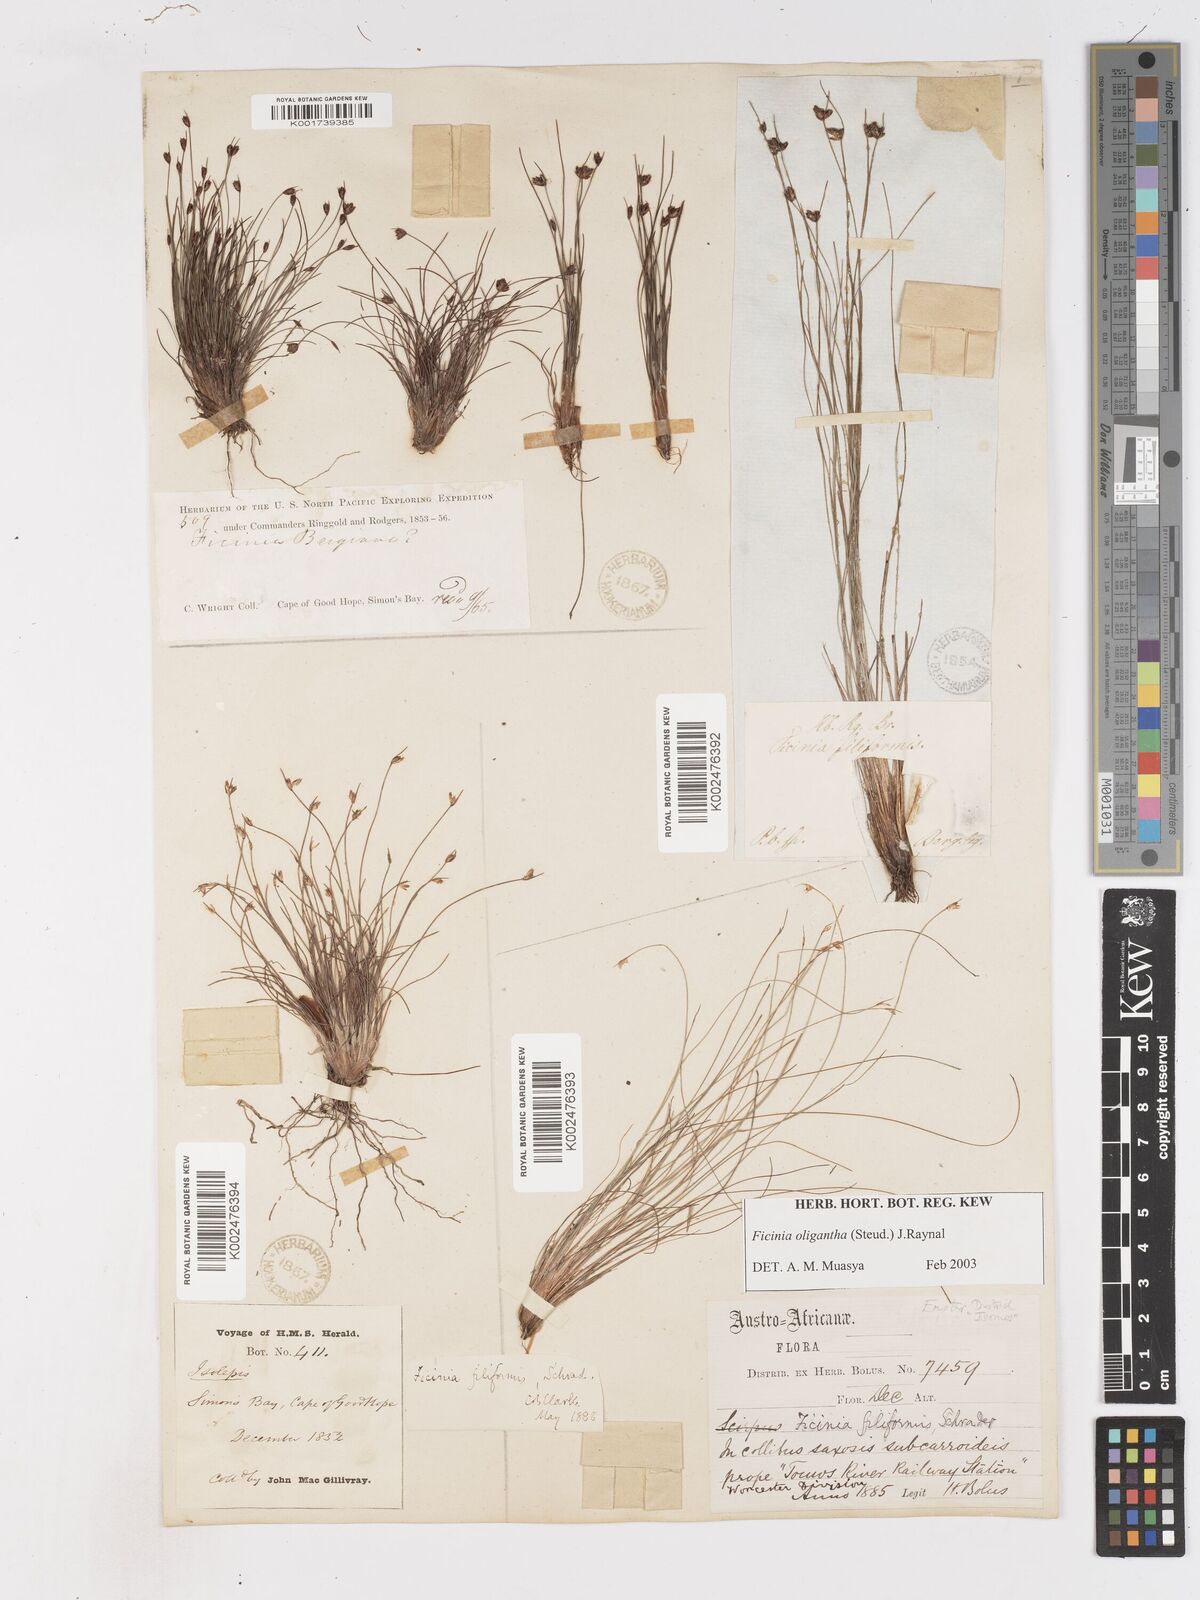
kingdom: Plantae
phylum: Tracheophyta
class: Liliopsida
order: Poales
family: Cyperaceae
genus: Ficinia
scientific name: Ficinia oligantha
